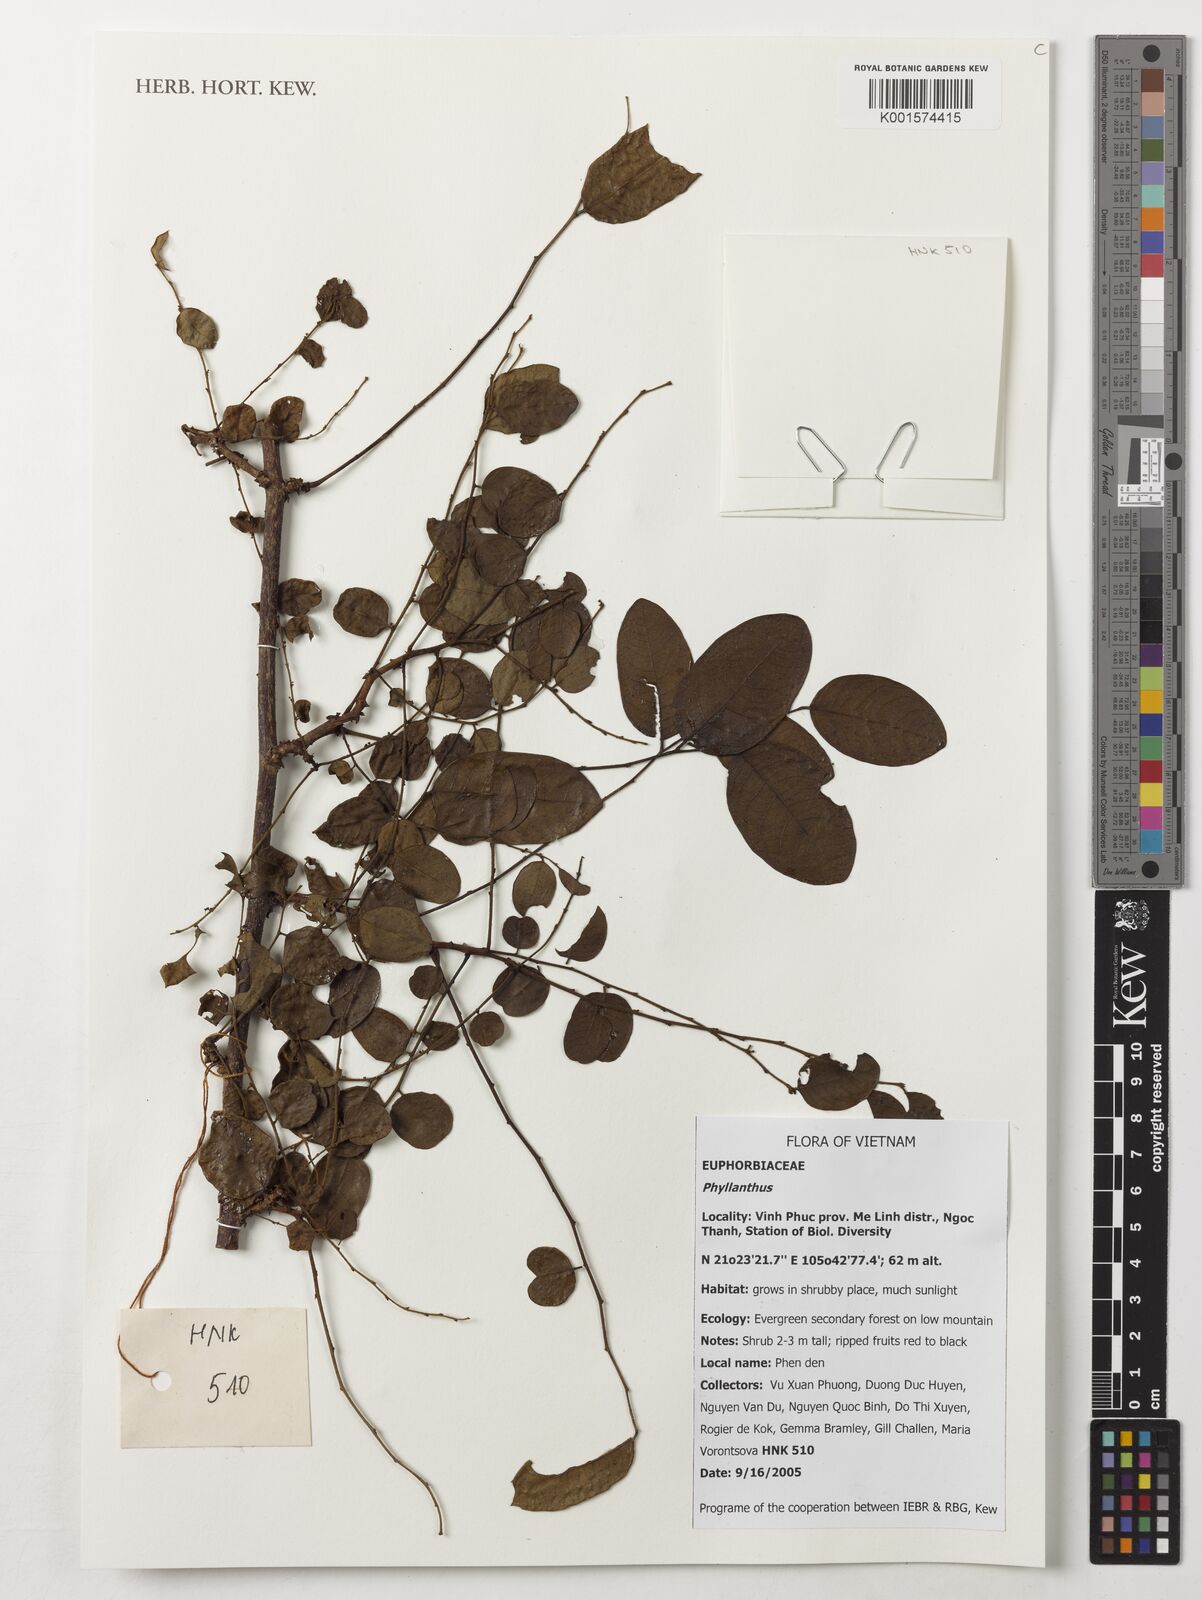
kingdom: Plantae
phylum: Tracheophyta
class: Magnoliopsida
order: Malpighiales
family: Phyllanthaceae
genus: Phyllanthus
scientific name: Phyllanthus
